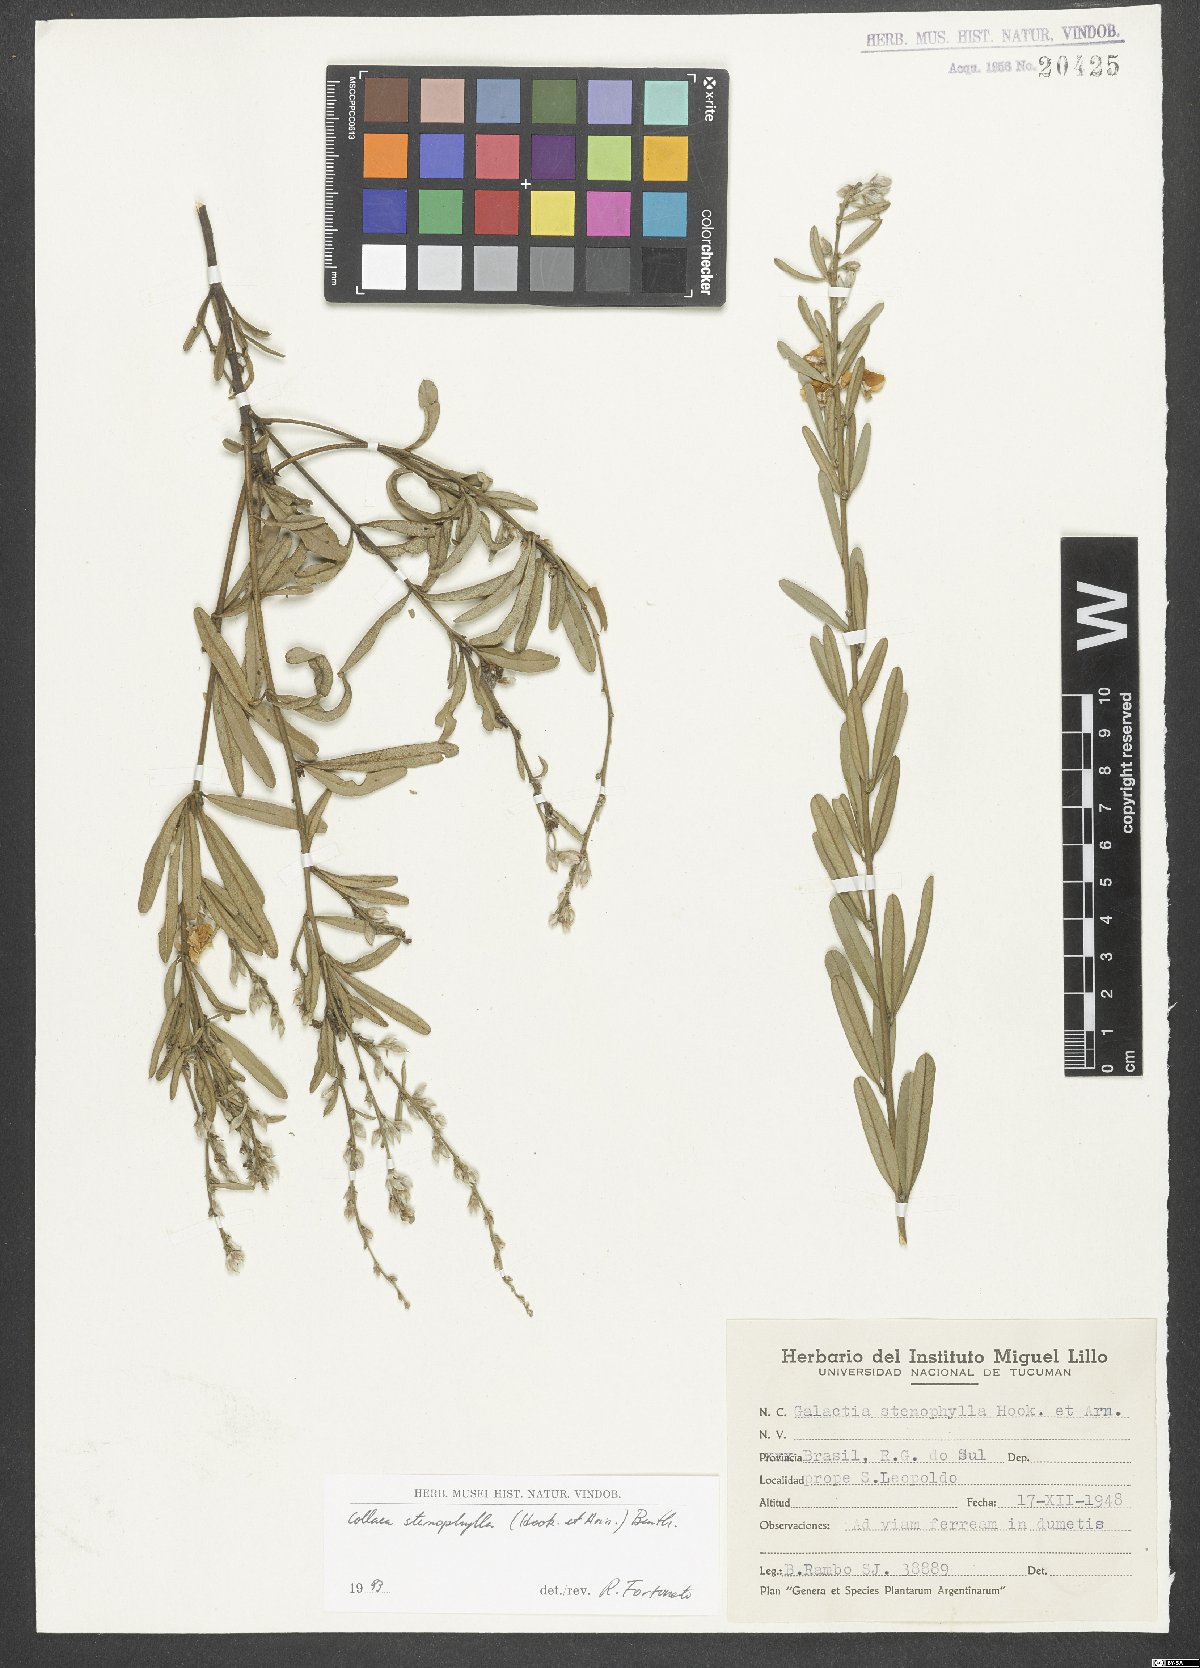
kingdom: Plantae
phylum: Tracheophyta
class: Magnoliopsida
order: Fabales
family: Fabaceae
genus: Collaea
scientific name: Collaea stenophylla
